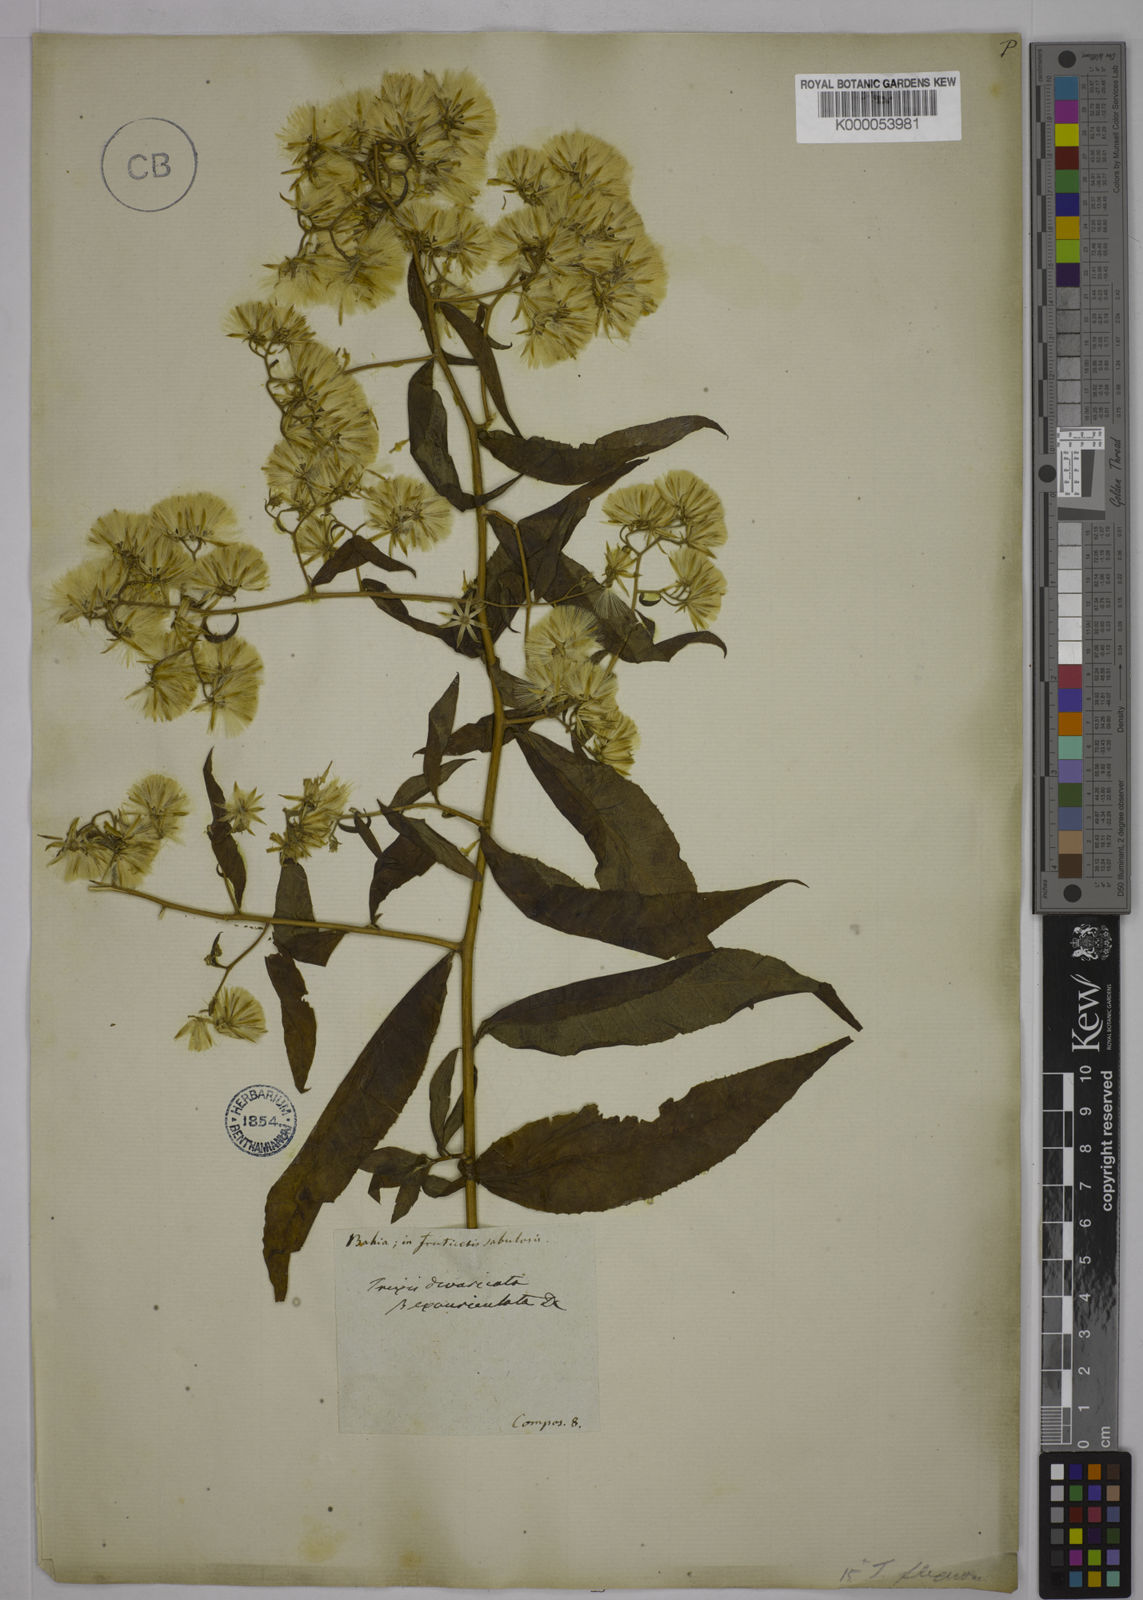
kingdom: Plantae
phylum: Tracheophyta
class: Magnoliopsida
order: Asterales
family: Asteraceae
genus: Trixis
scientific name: Trixis divaricata
